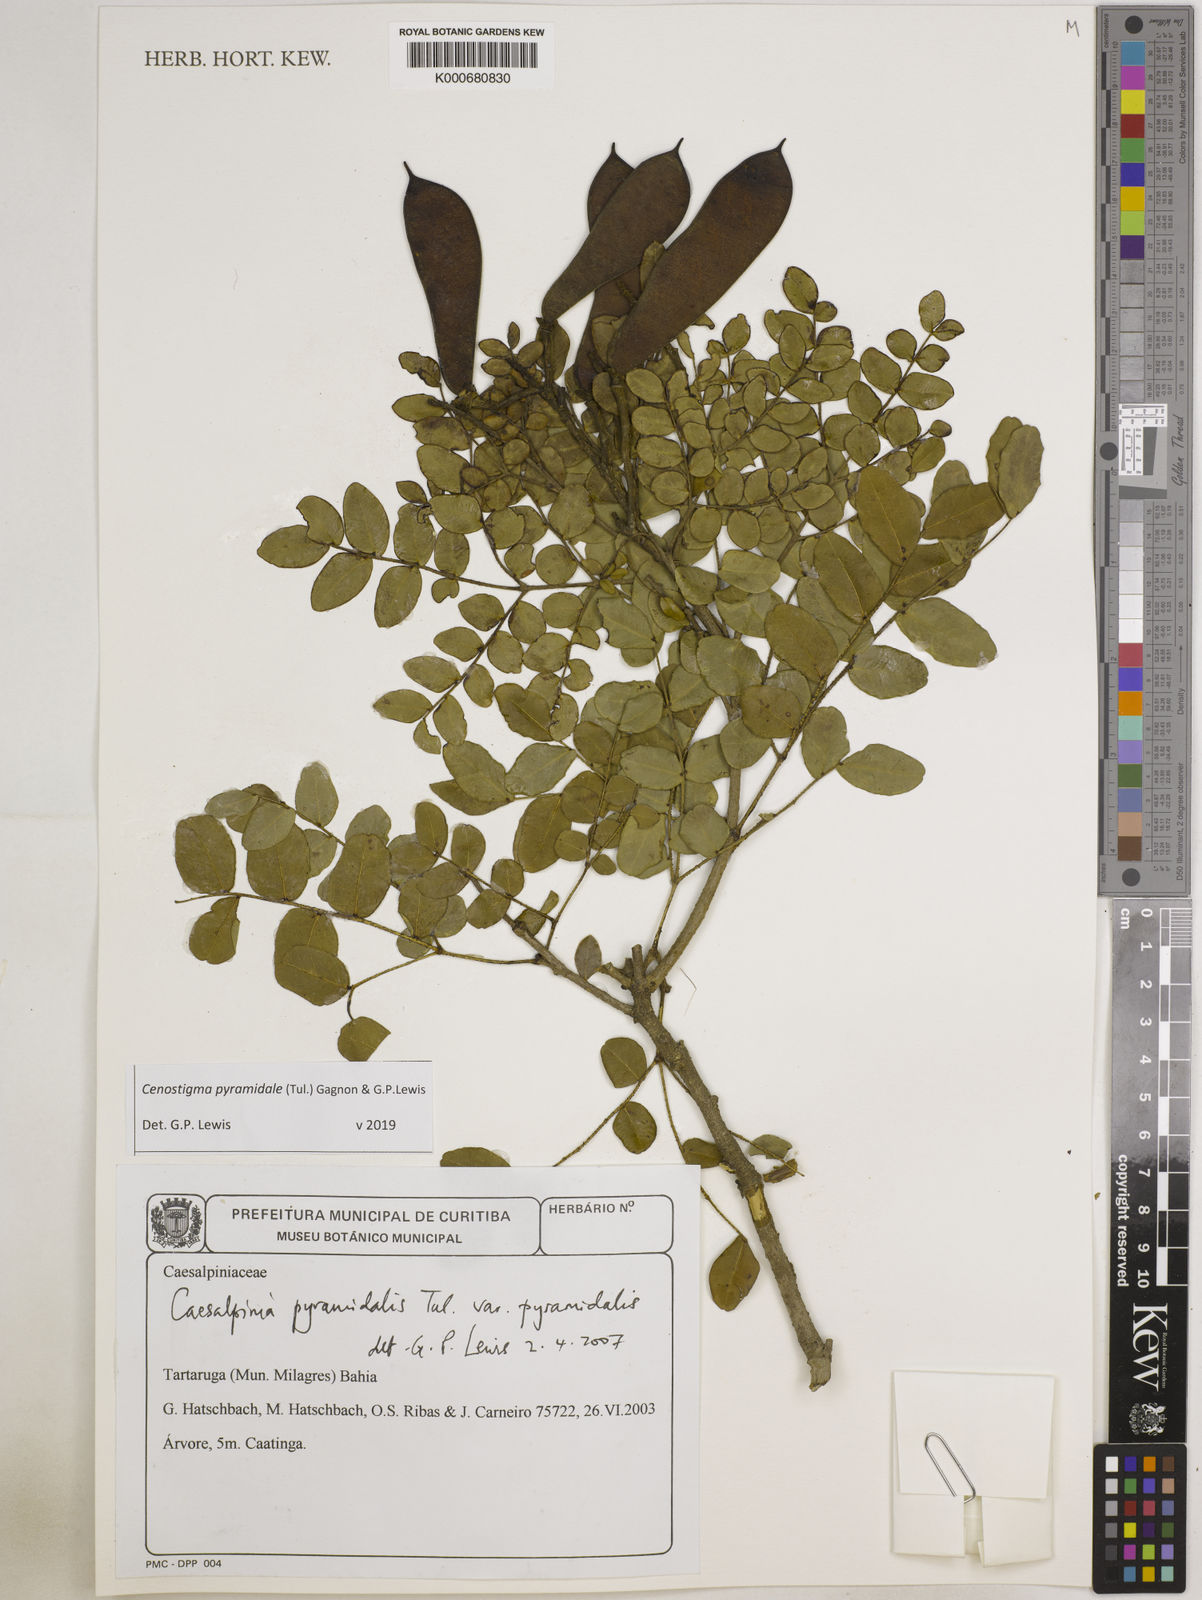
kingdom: Plantae
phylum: Tracheophyta
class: Magnoliopsida
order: Fabales
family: Fabaceae
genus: Caesalpinia
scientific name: Caesalpinia
